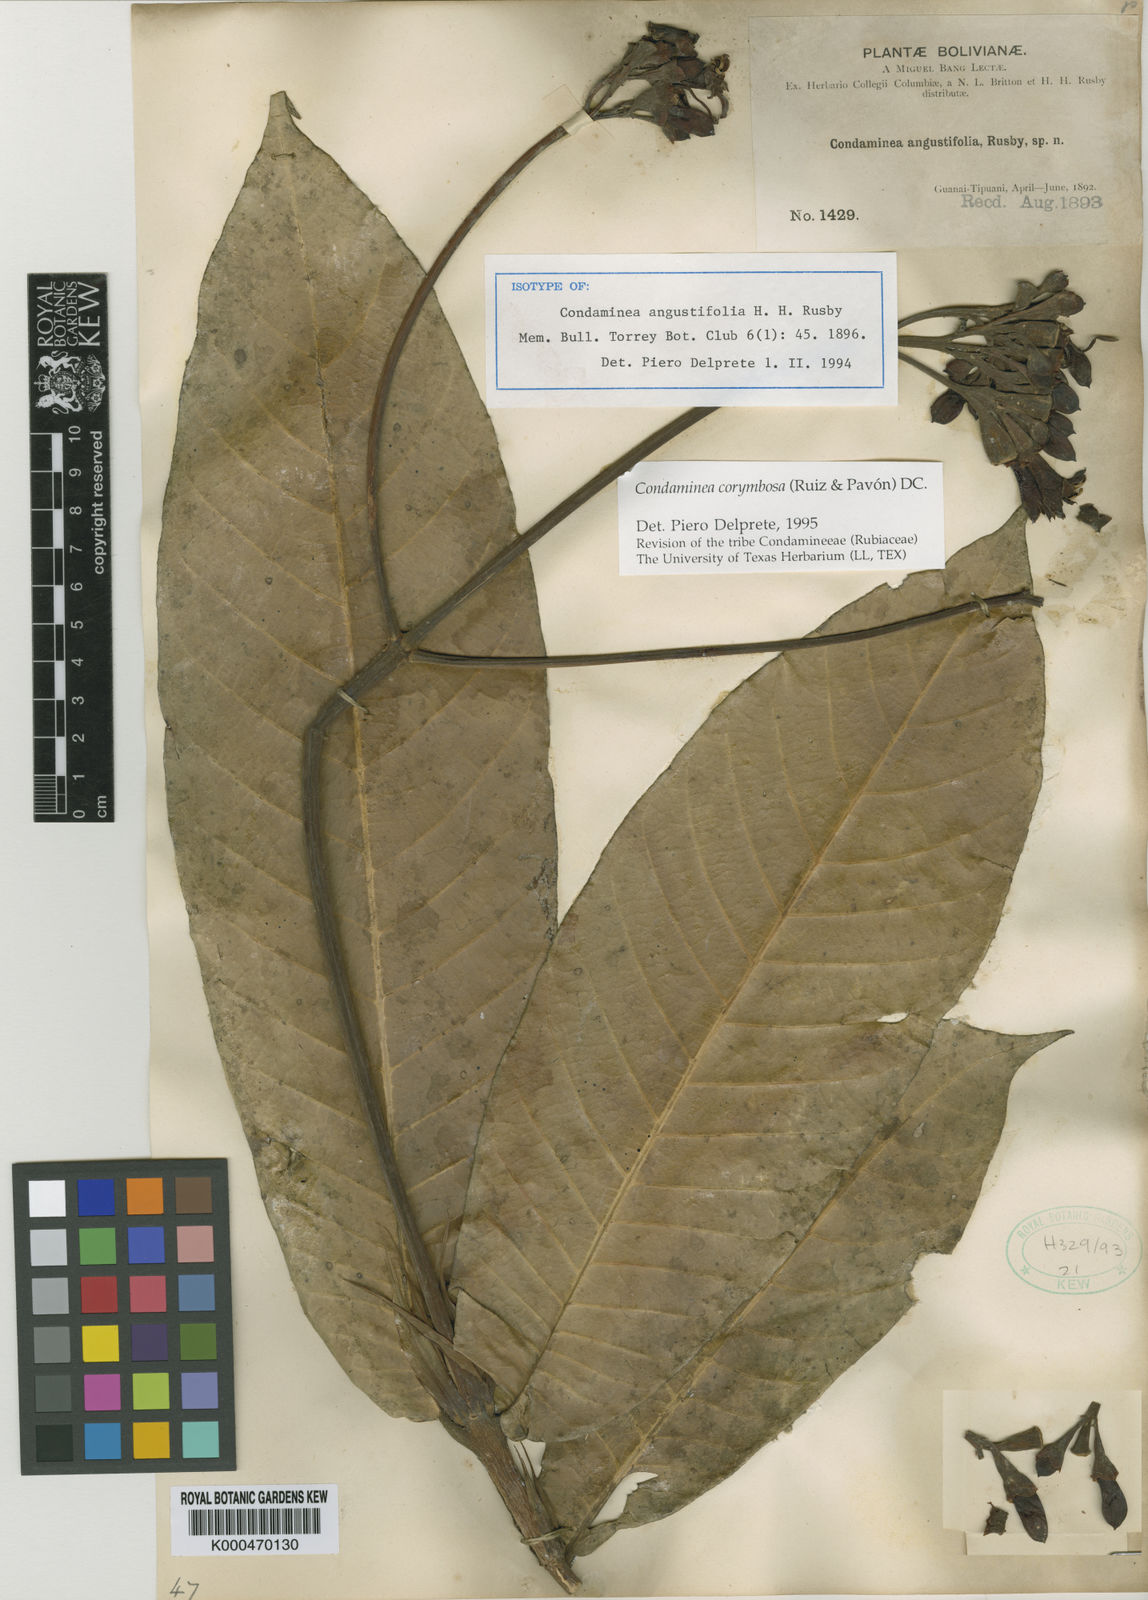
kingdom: Plantae
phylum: Tracheophyta
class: Magnoliopsida
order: Gentianales
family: Rubiaceae
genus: Condaminea
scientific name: Condaminea
